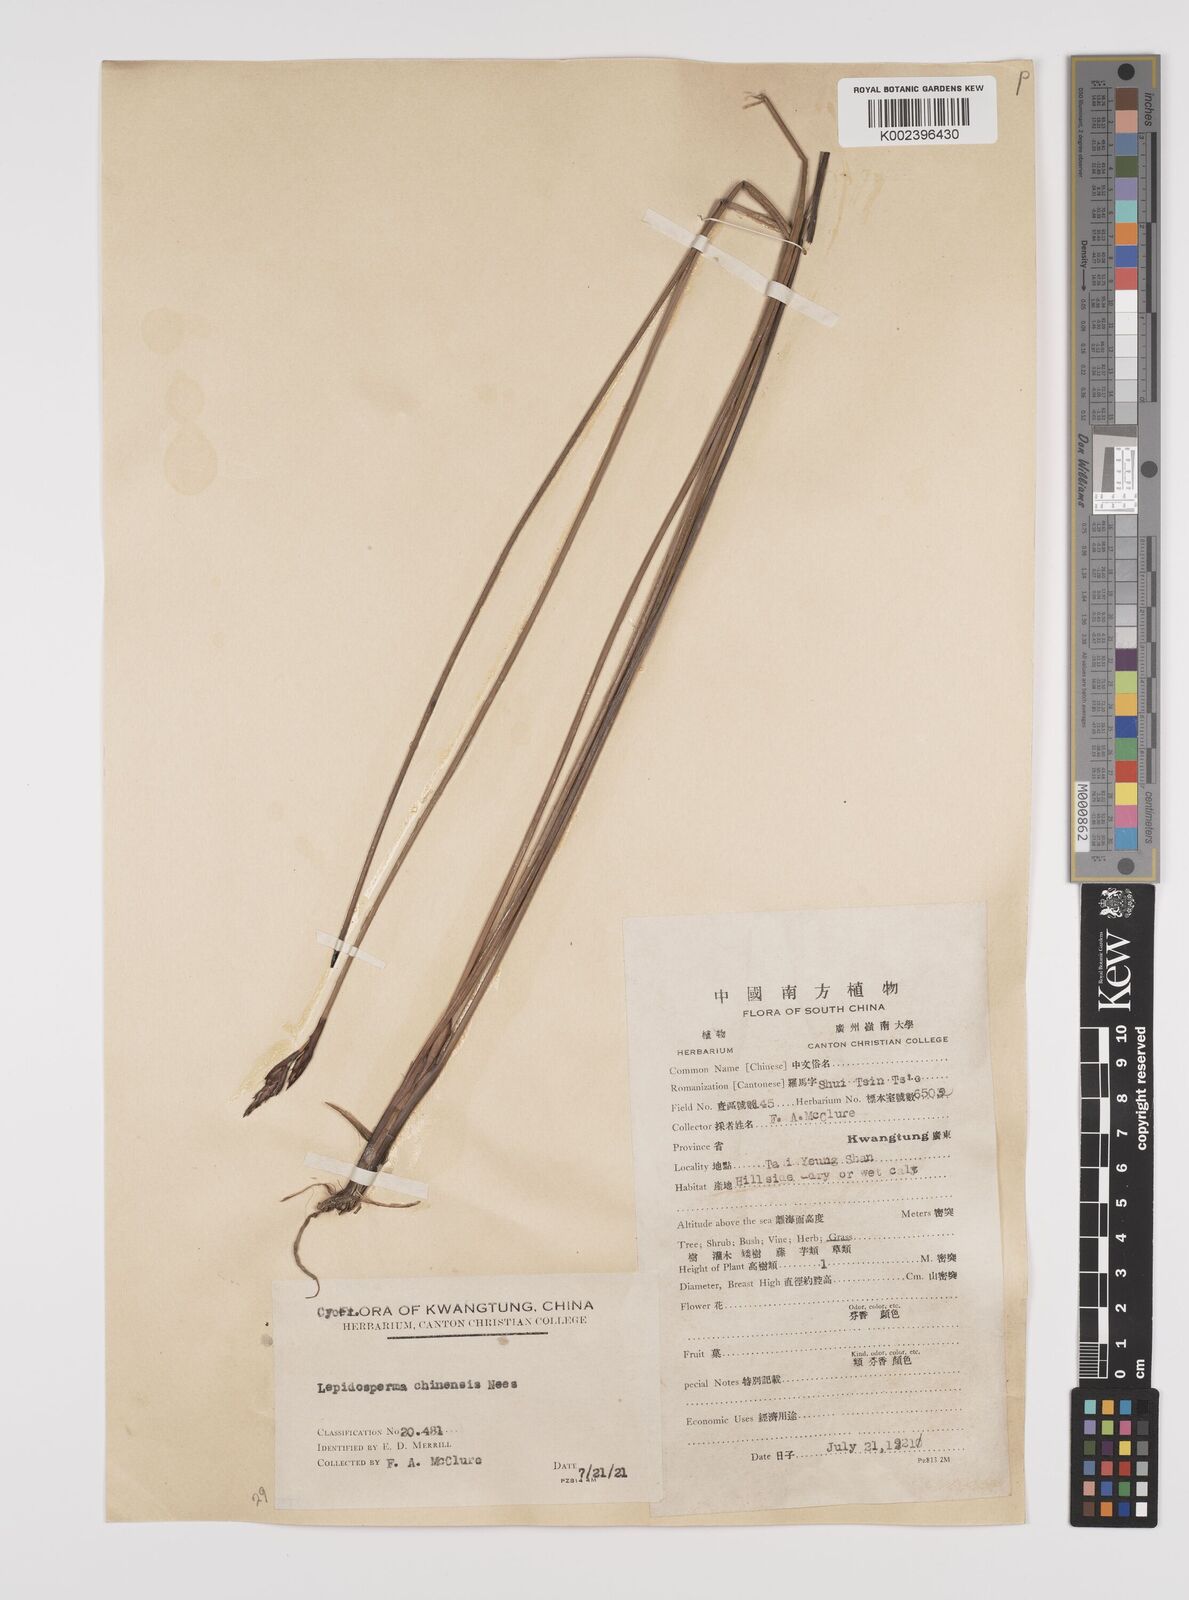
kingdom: Plantae
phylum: Tracheophyta
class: Liliopsida
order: Poales
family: Cyperaceae
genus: Lepidosperma
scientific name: Lepidosperma chinense
